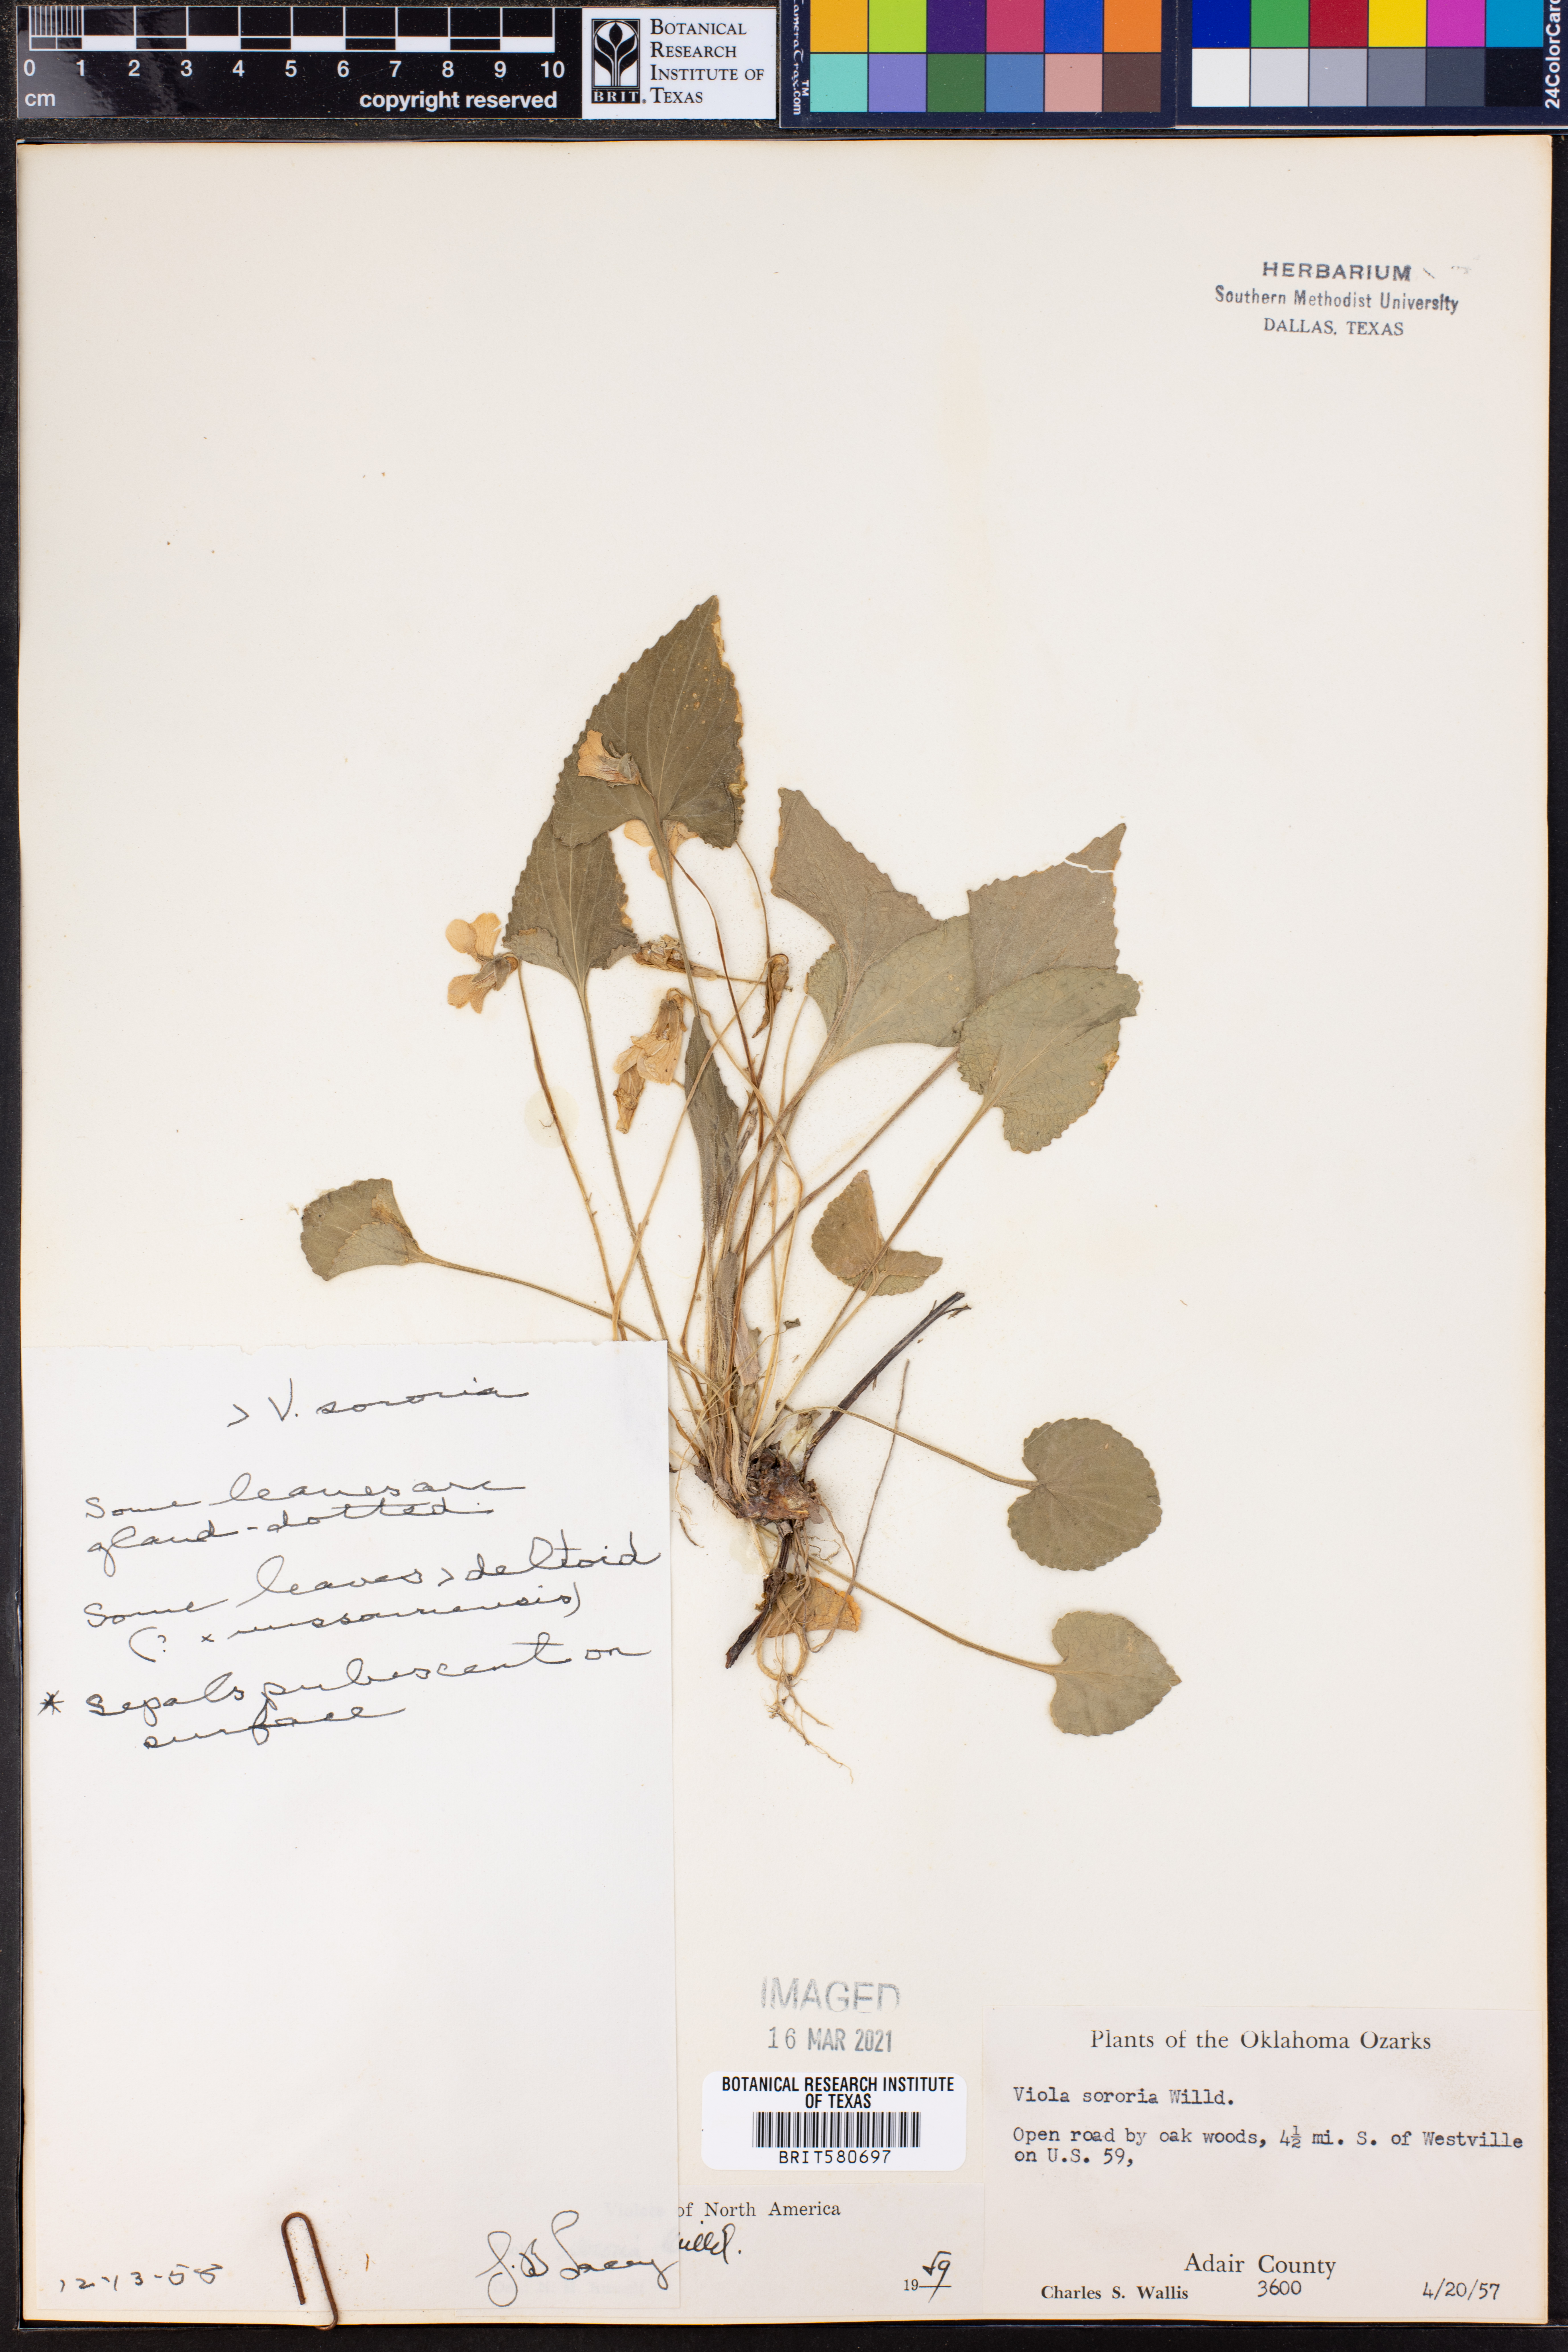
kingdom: Plantae
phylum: Tracheophyta
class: Magnoliopsida
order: Malpighiales
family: Violaceae
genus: Viola
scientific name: Viola sororia
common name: Dooryard violet
